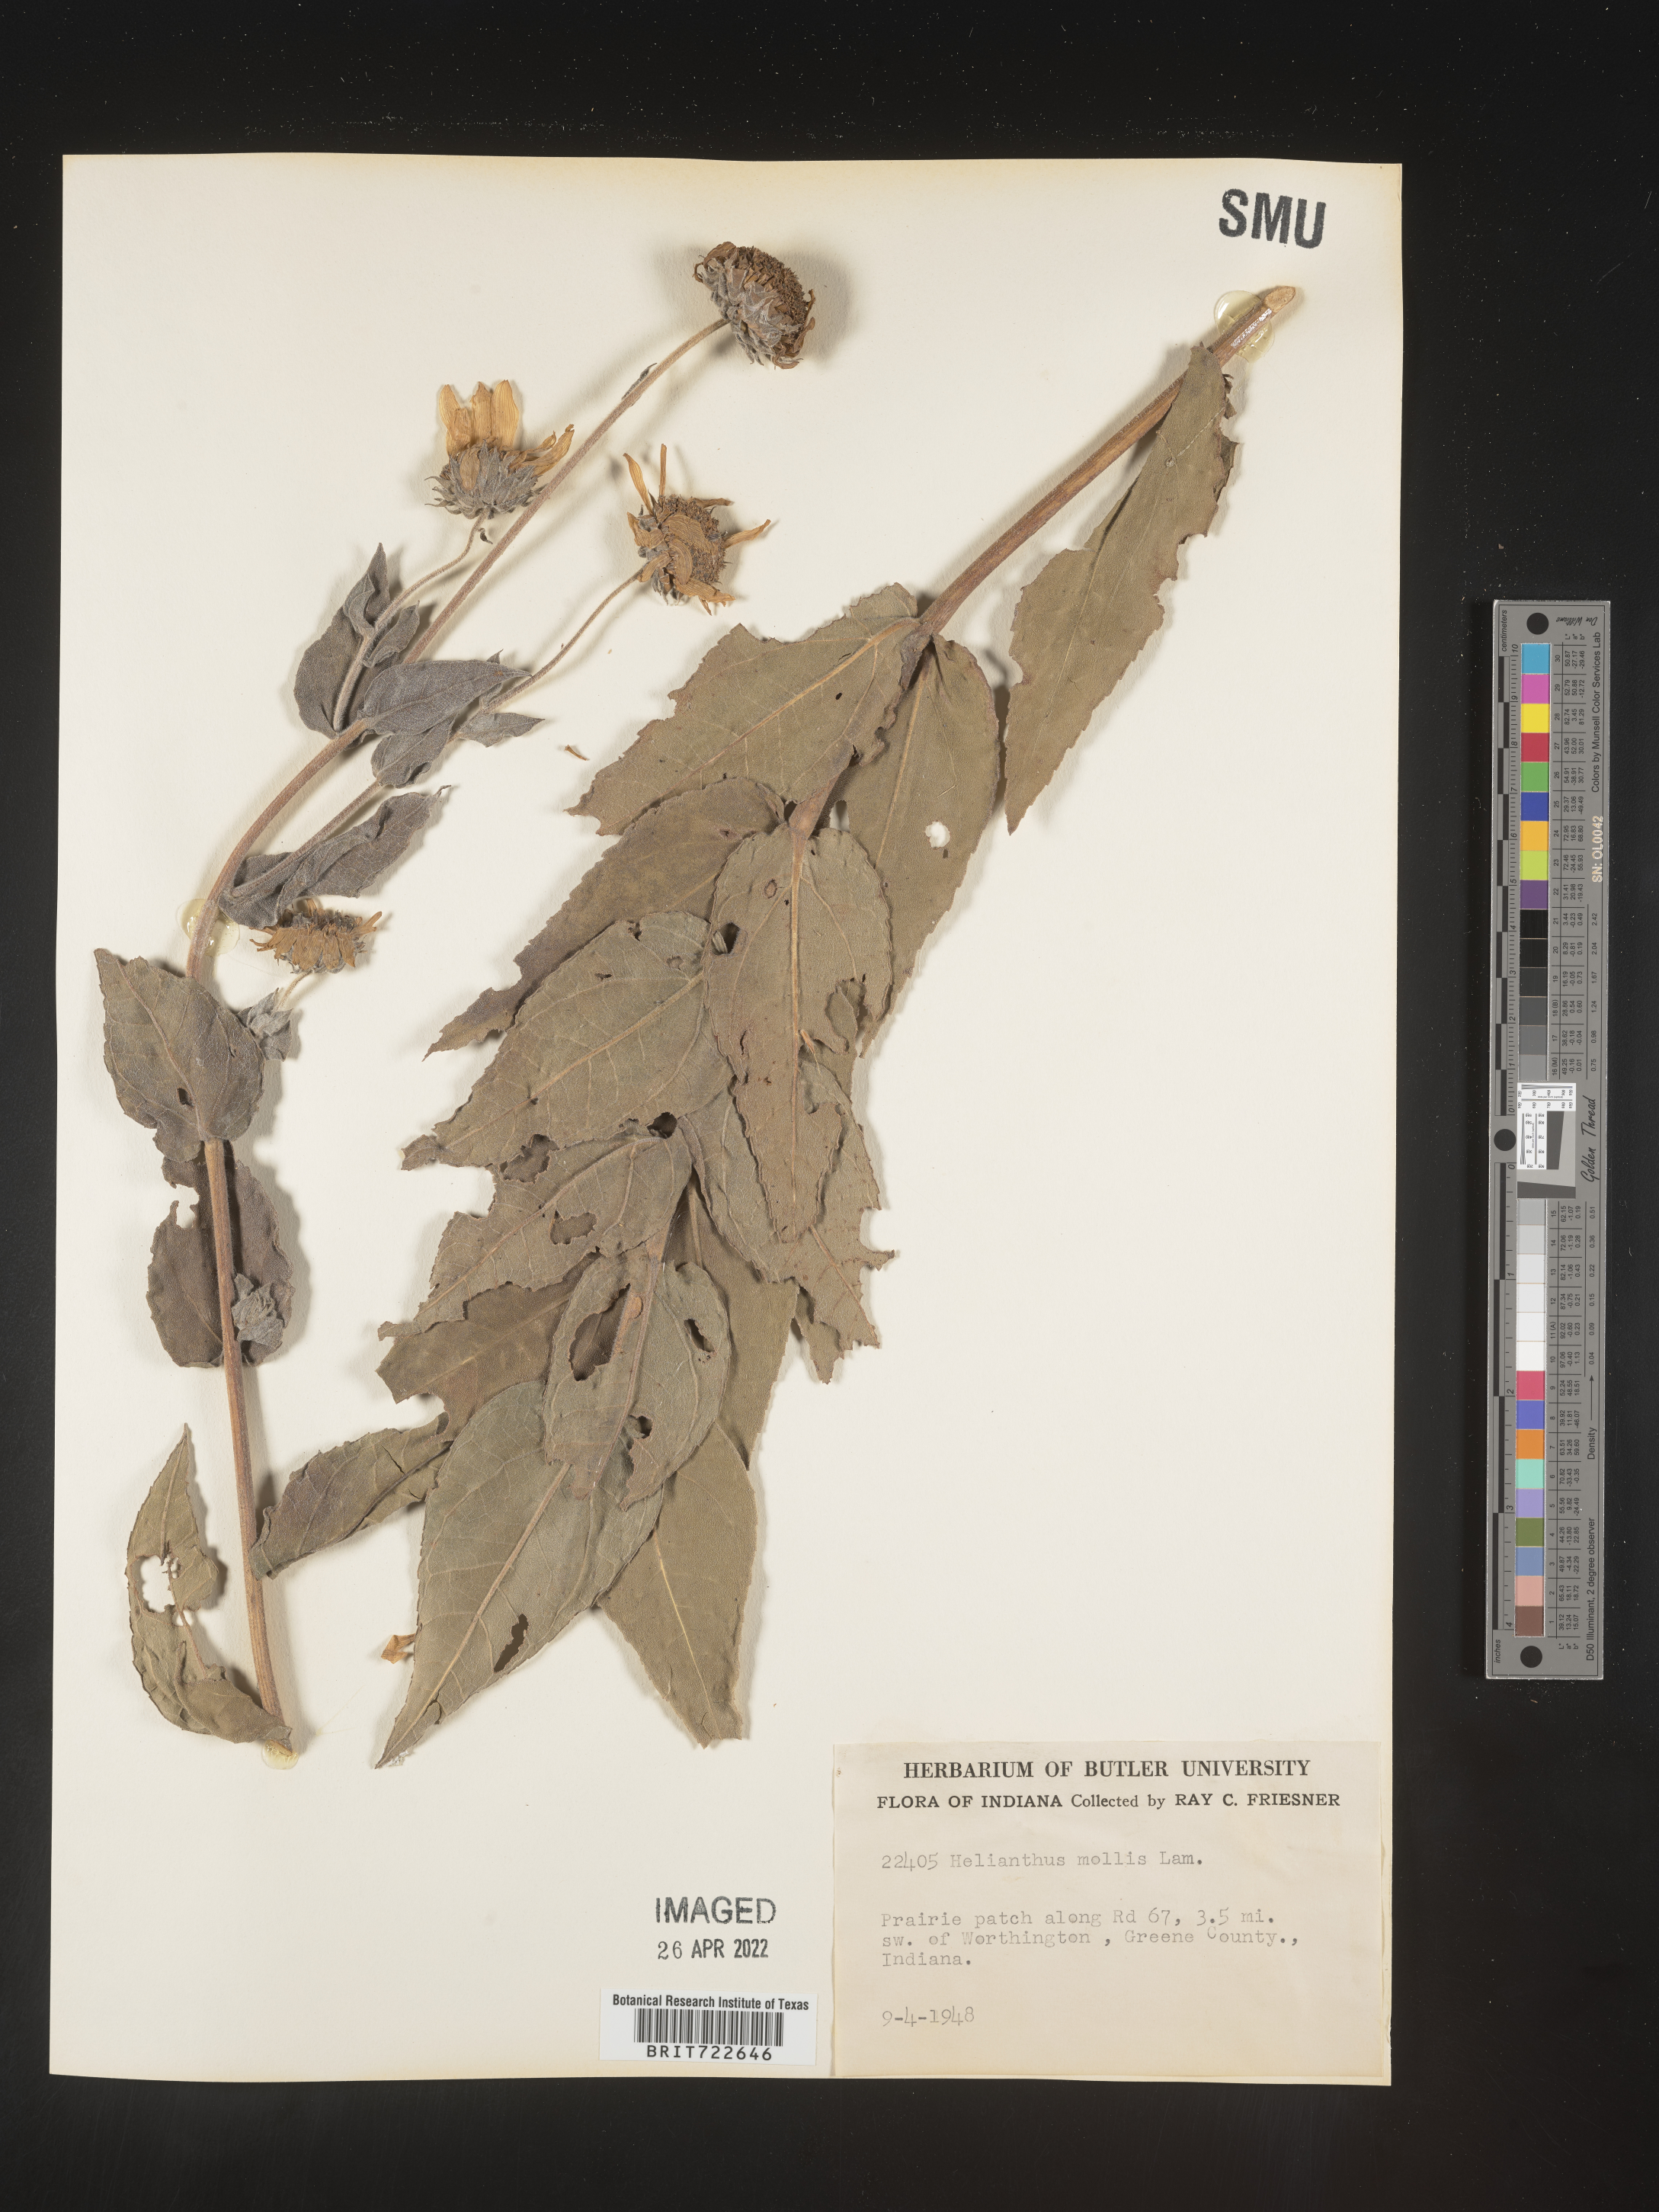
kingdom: Plantae
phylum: Tracheophyta
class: Magnoliopsida
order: Asterales
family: Asteraceae
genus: Helianthus
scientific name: Helianthus mollis
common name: Ashy sunflower
